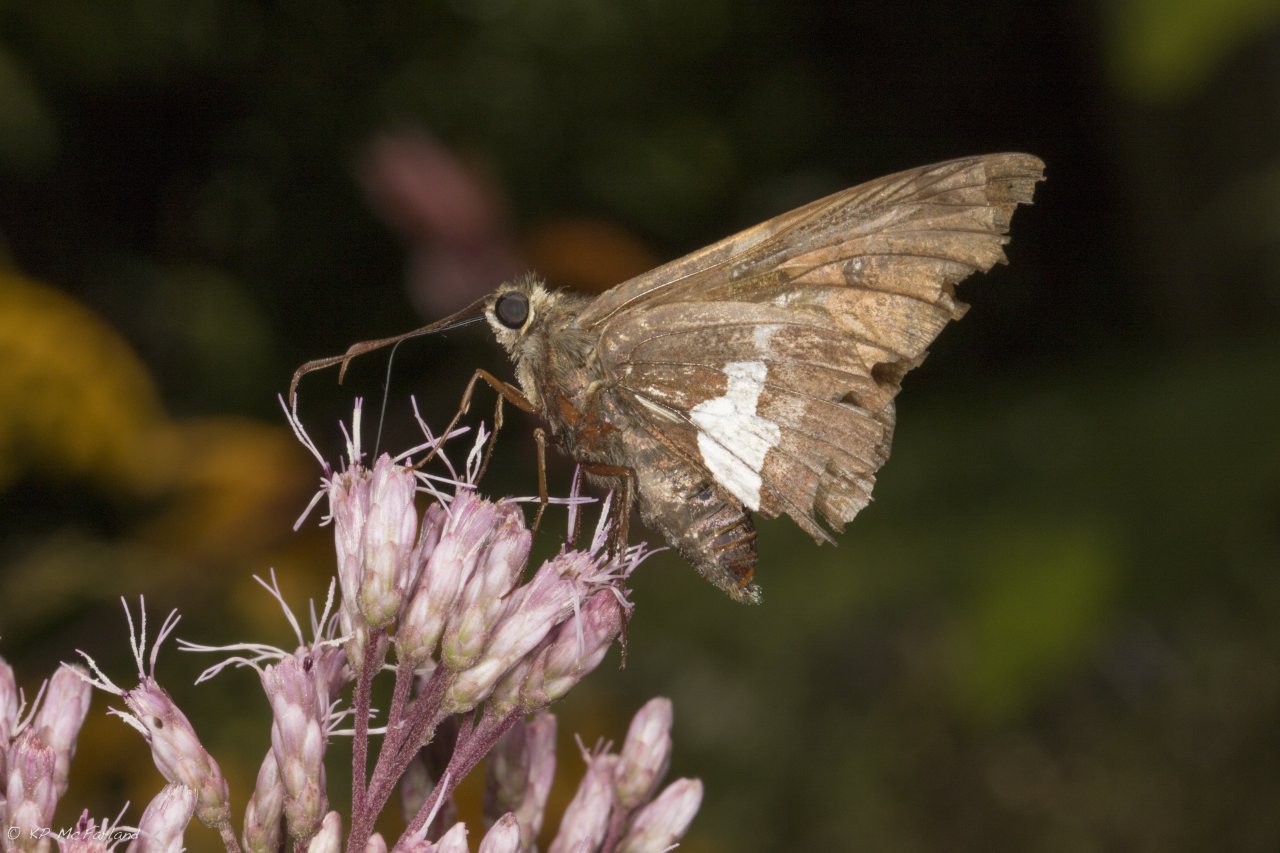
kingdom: Animalia
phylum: Arthropoda
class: Insecta
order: Lepidoptera
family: Hesperiidae
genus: Epargyreus
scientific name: Epargyreus clarus
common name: Silver-spotted Skipper
